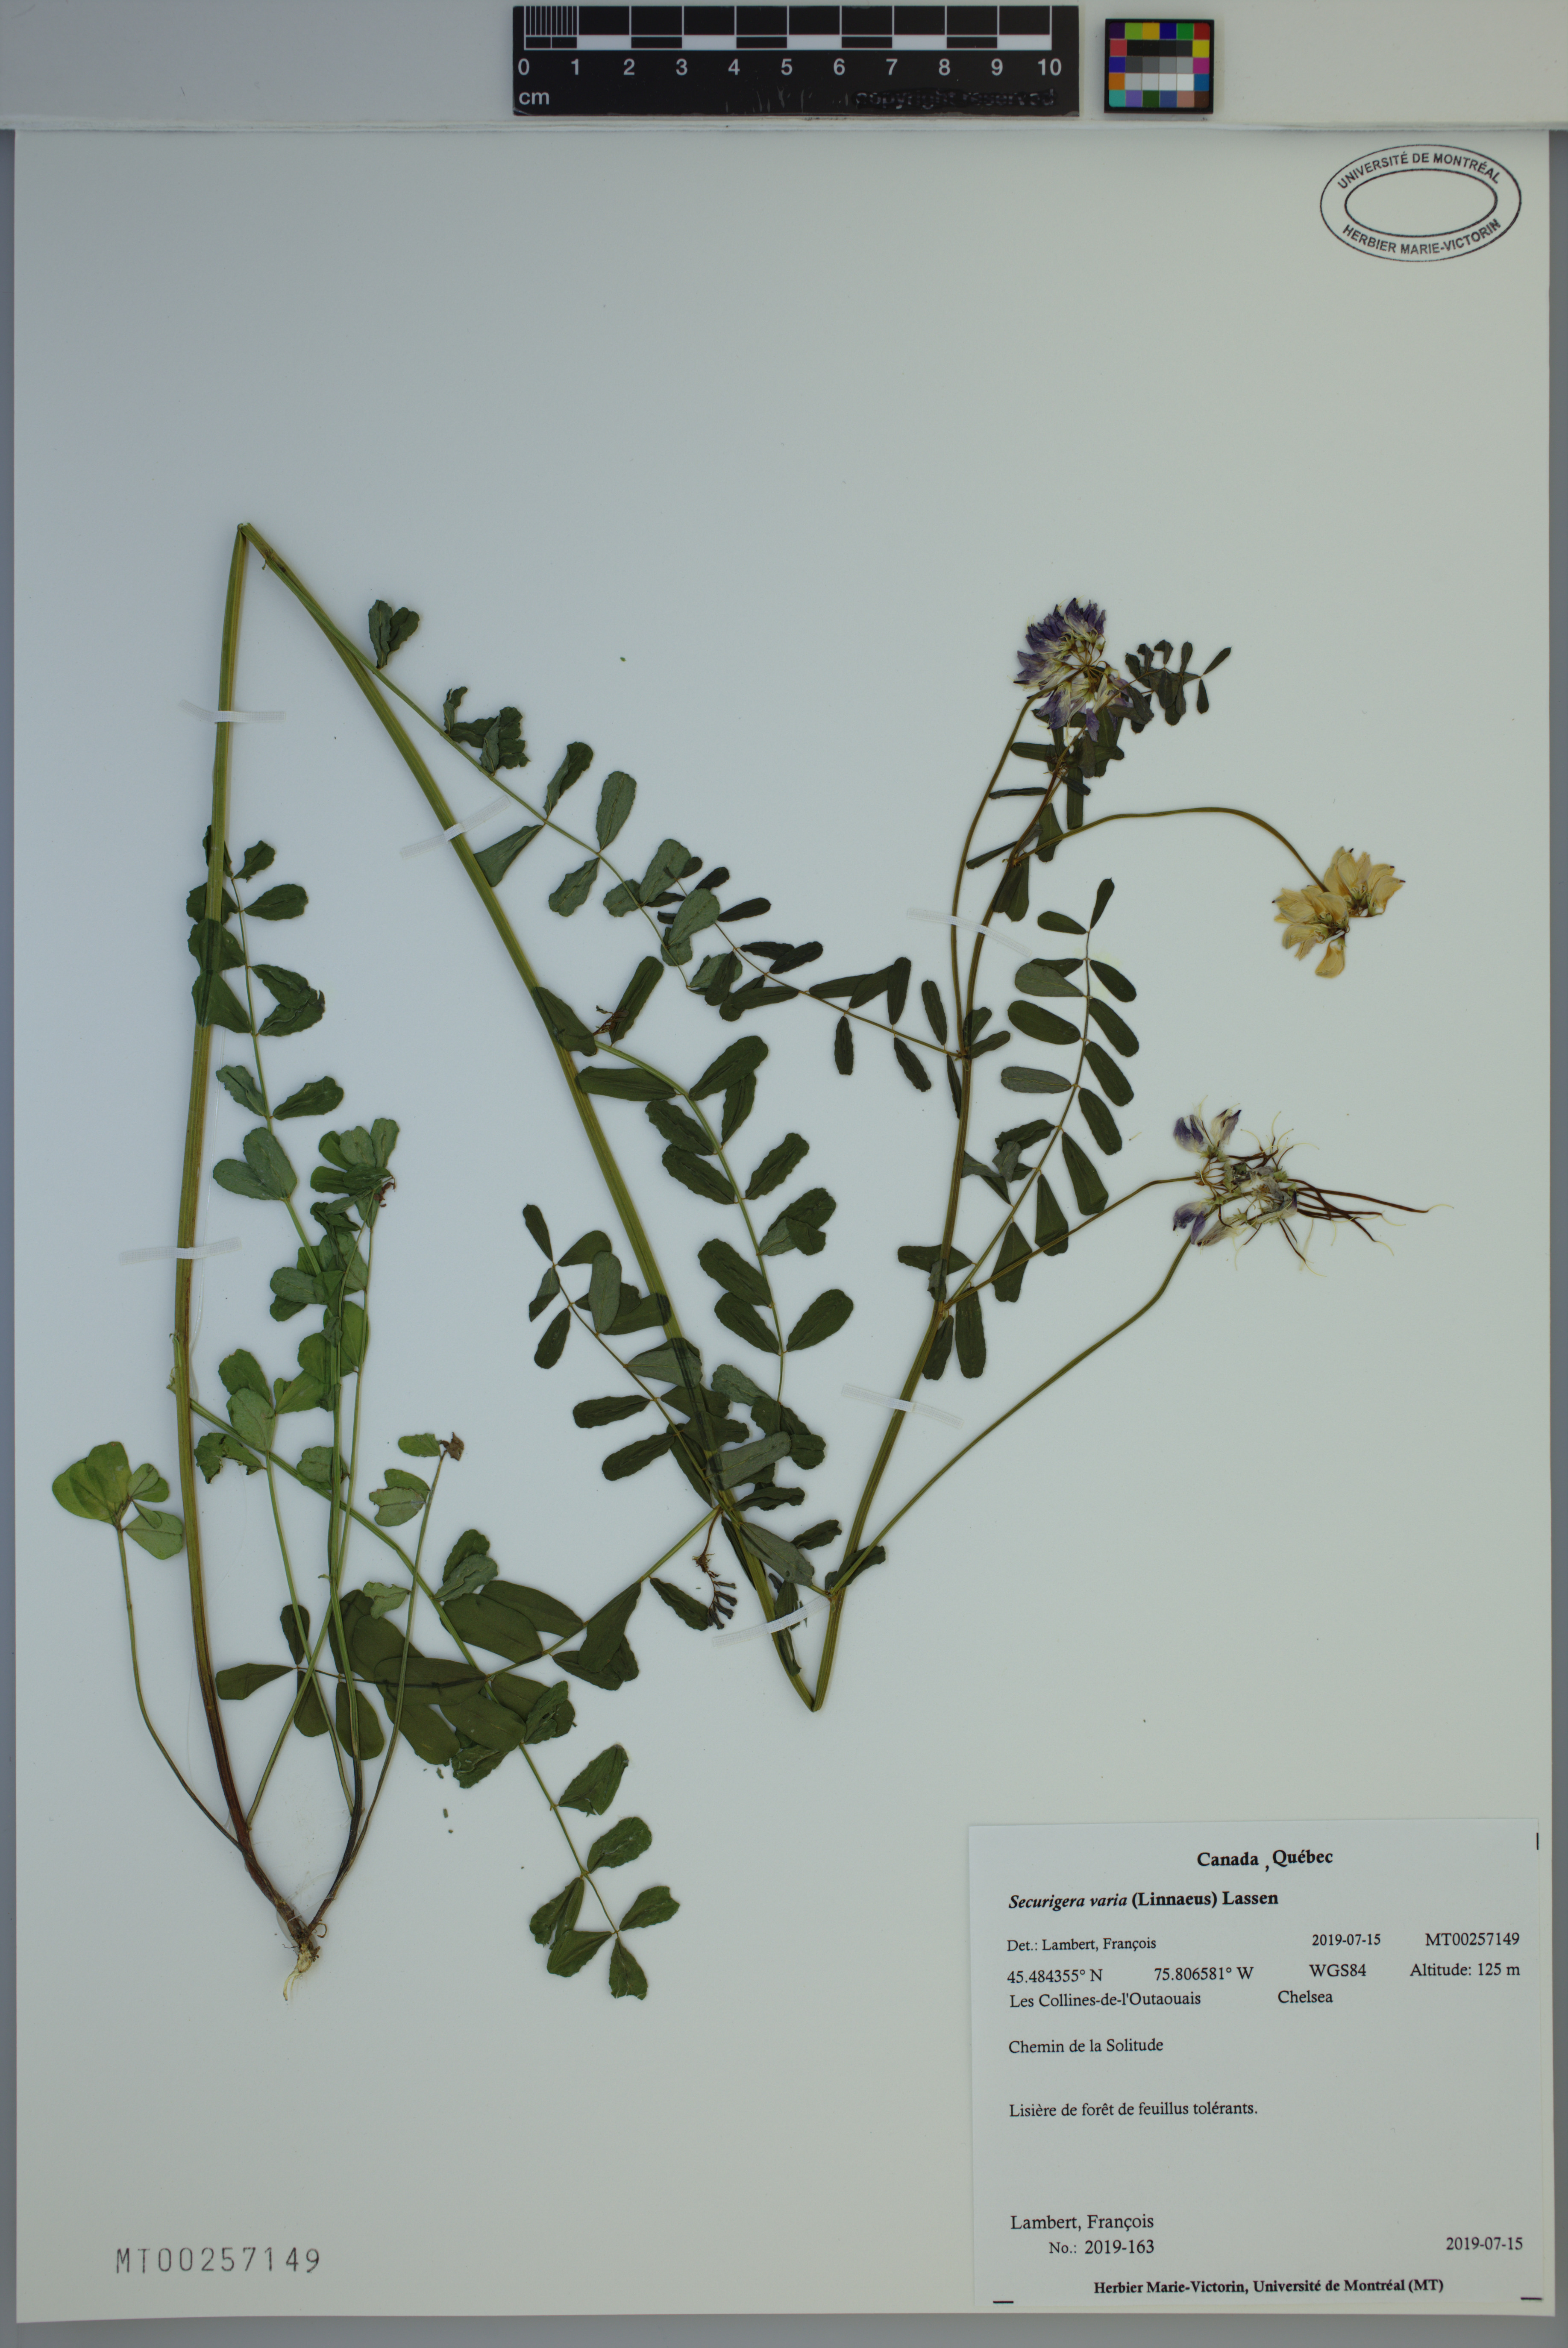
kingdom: Plantae
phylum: Tracheophyta
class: Magnoliopsida
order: Fabales
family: Fabaceae
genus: Coronilla
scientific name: Coronilla varia
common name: Crownvetch
